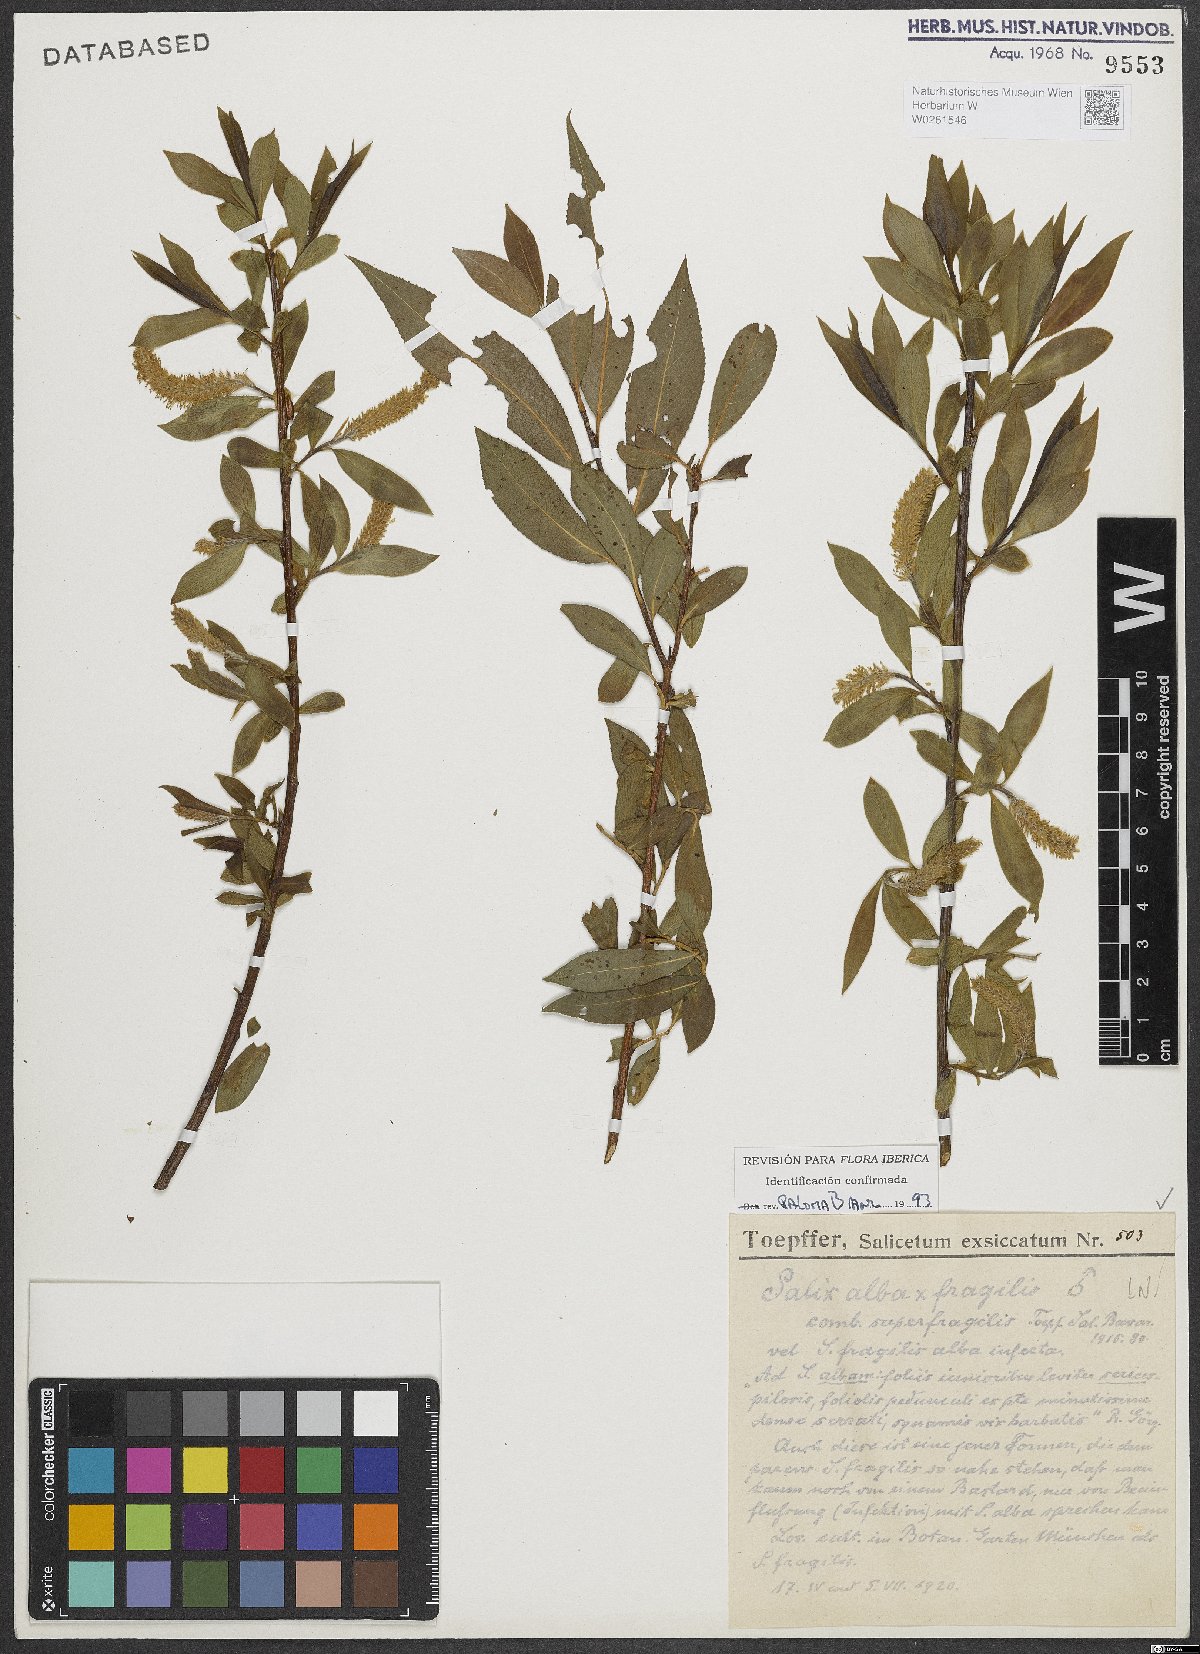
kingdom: Plantae
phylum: Tracheophyta
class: Magnoliopsida
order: Malpighiales
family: Salicaceae
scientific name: Salicaceae
